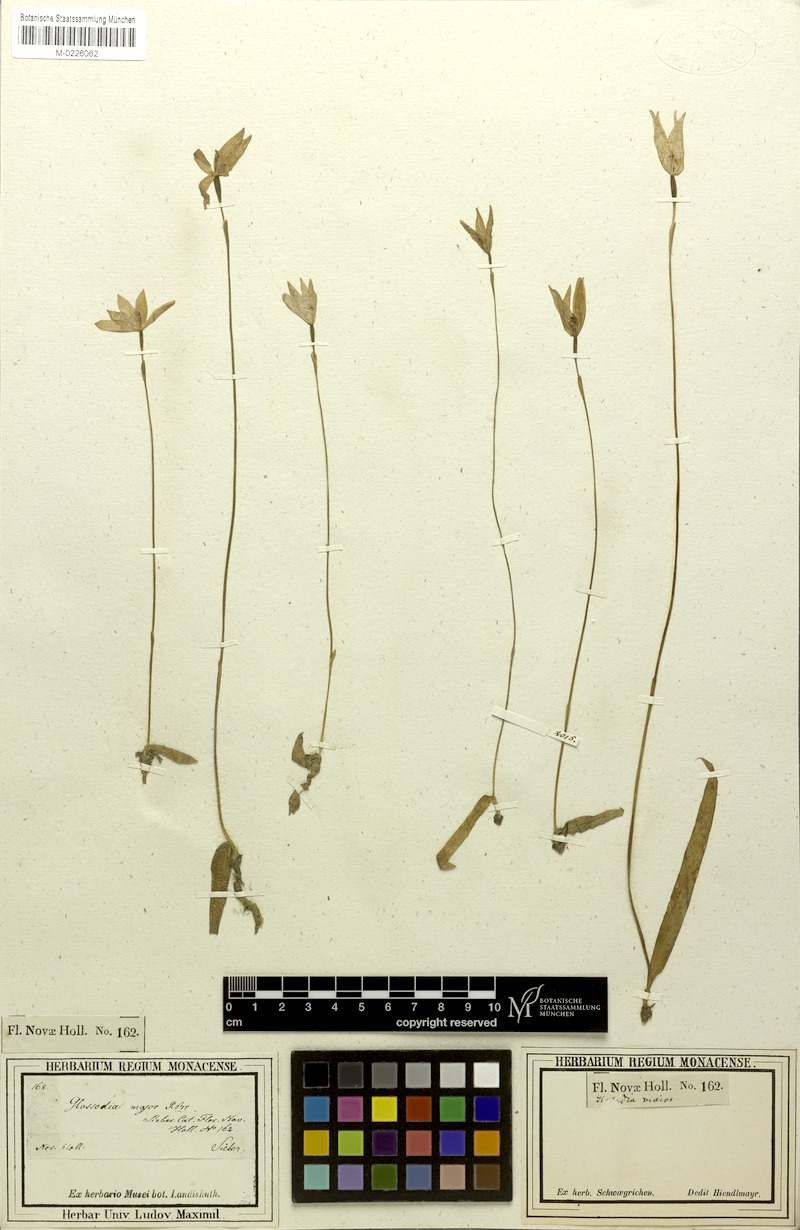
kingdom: Plantae
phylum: Tracheophyta
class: Liliopsida
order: Asparagales
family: Orchidaceae
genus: Caladenia
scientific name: Caladenia major
